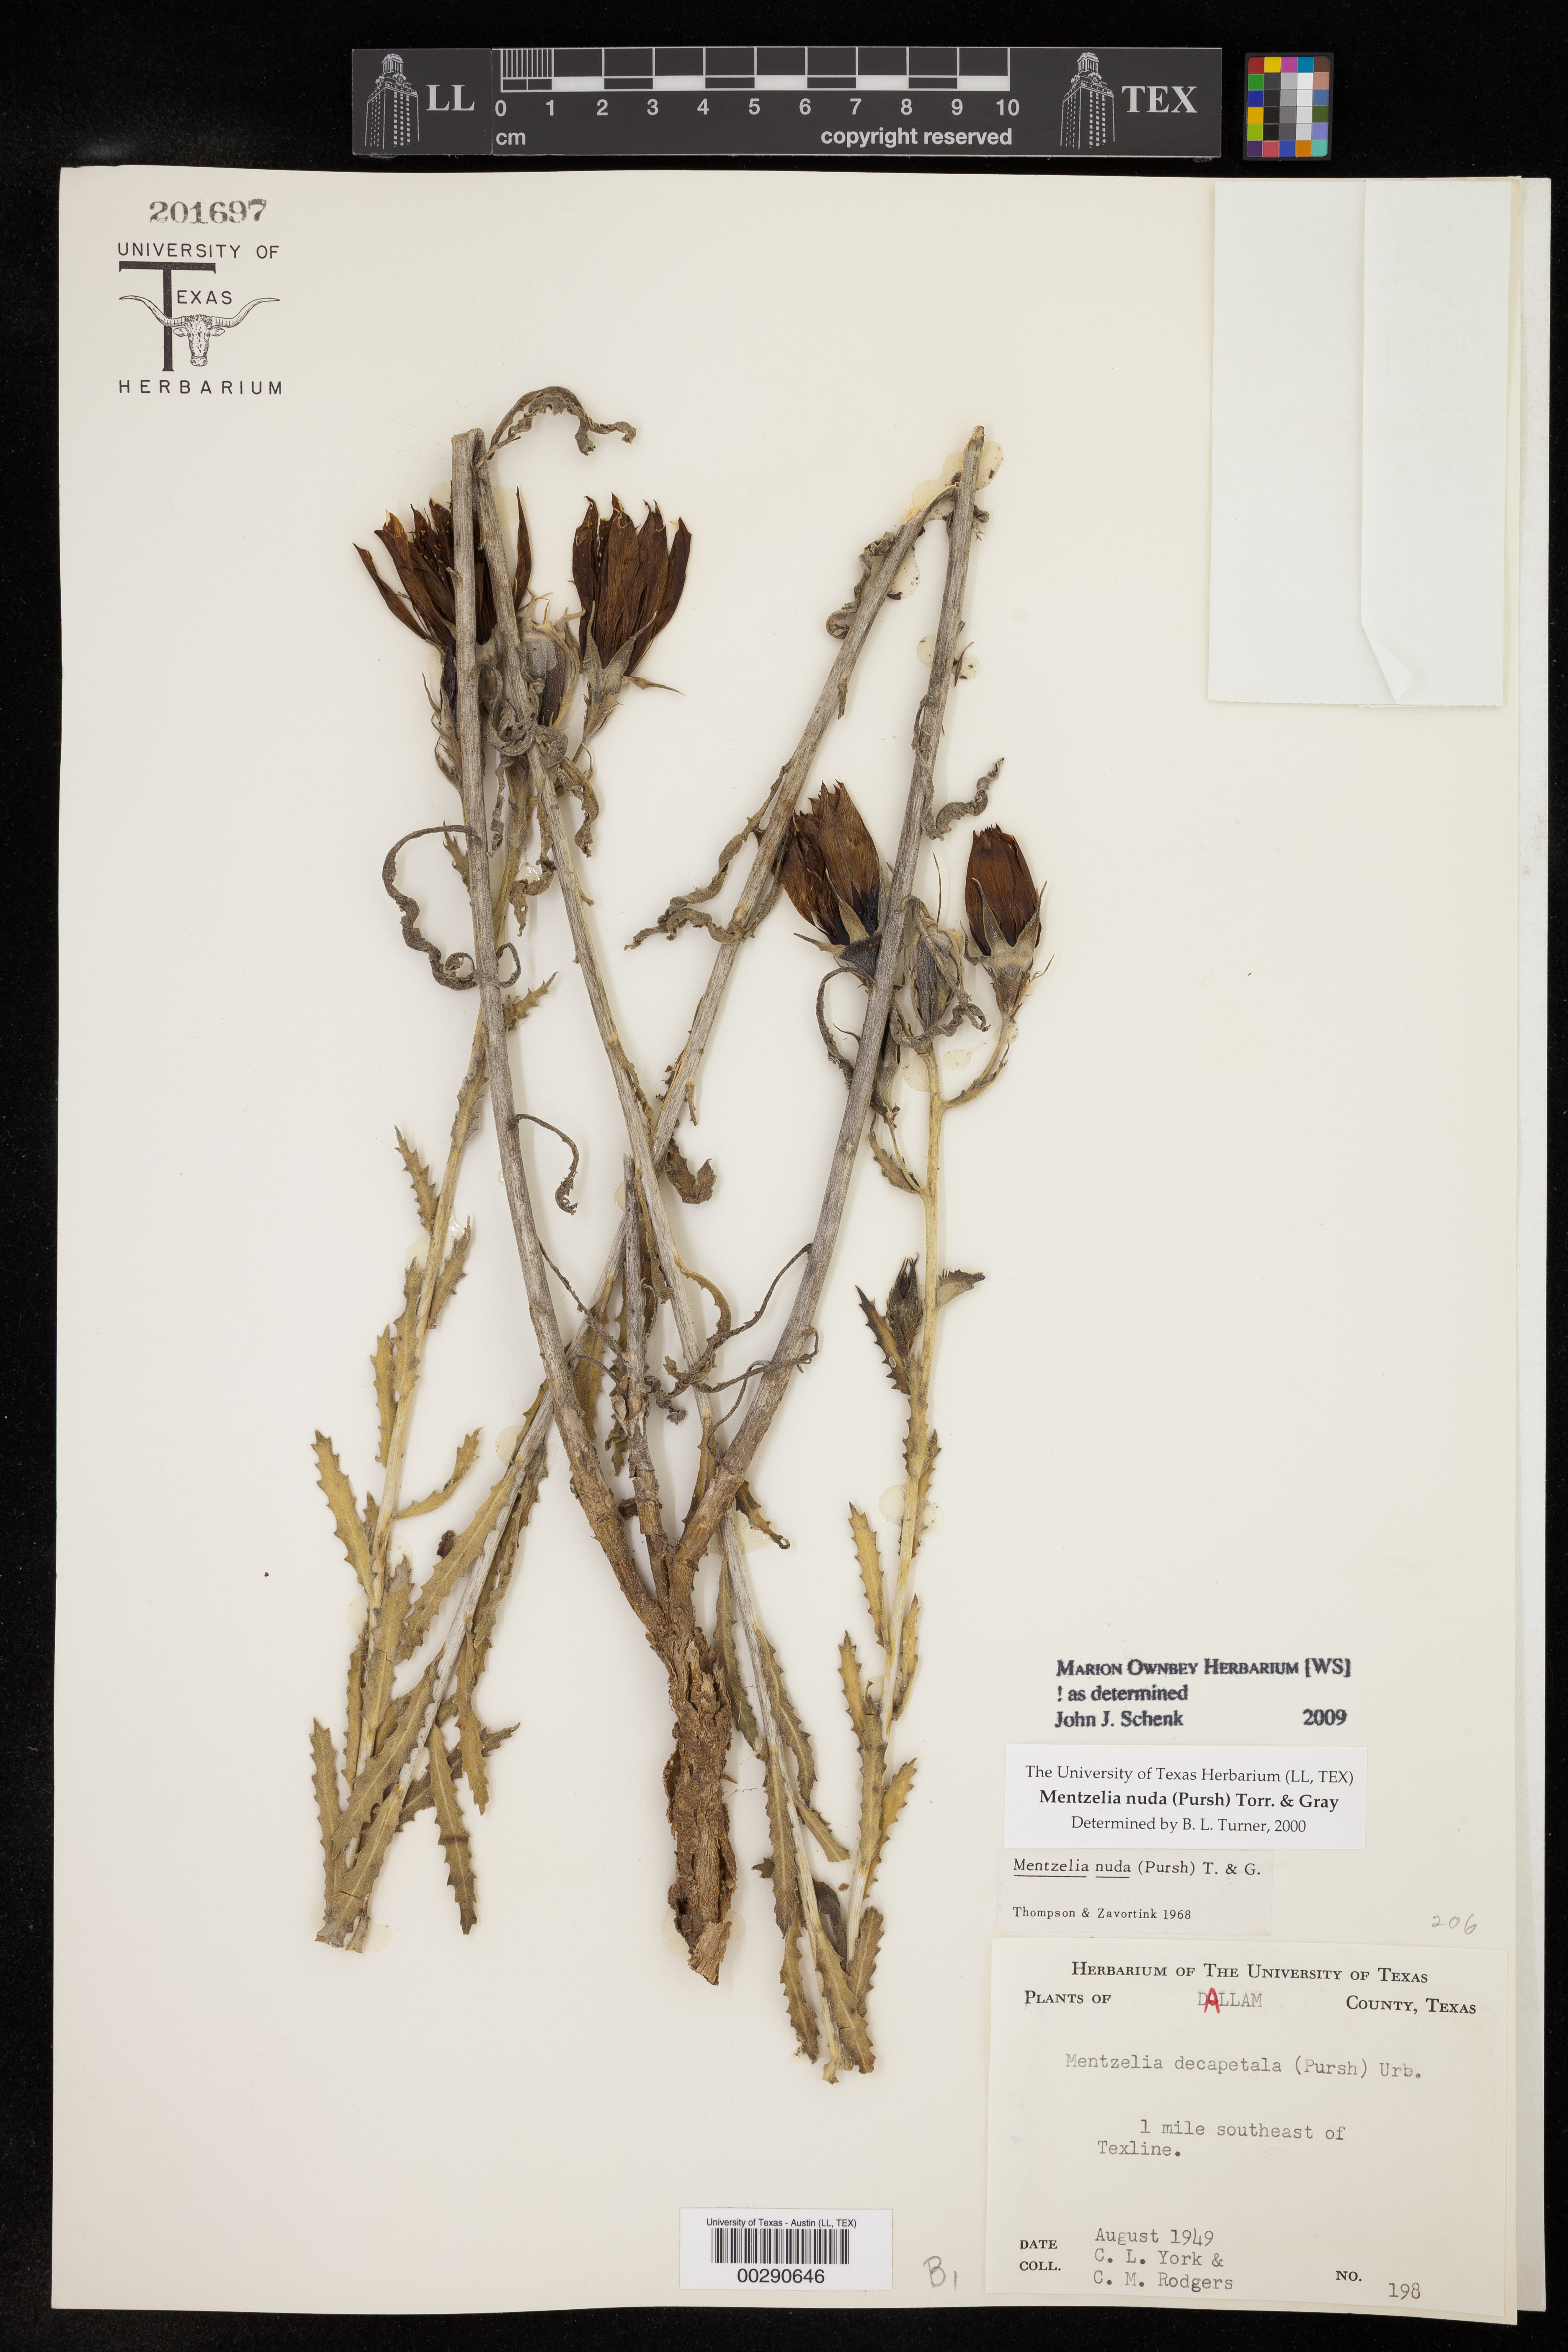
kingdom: Plantae
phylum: Tracheophyta
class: Magnoliopsida
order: Cornales
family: Loasaceae
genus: Mentzelia
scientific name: Mentzelia nuda
